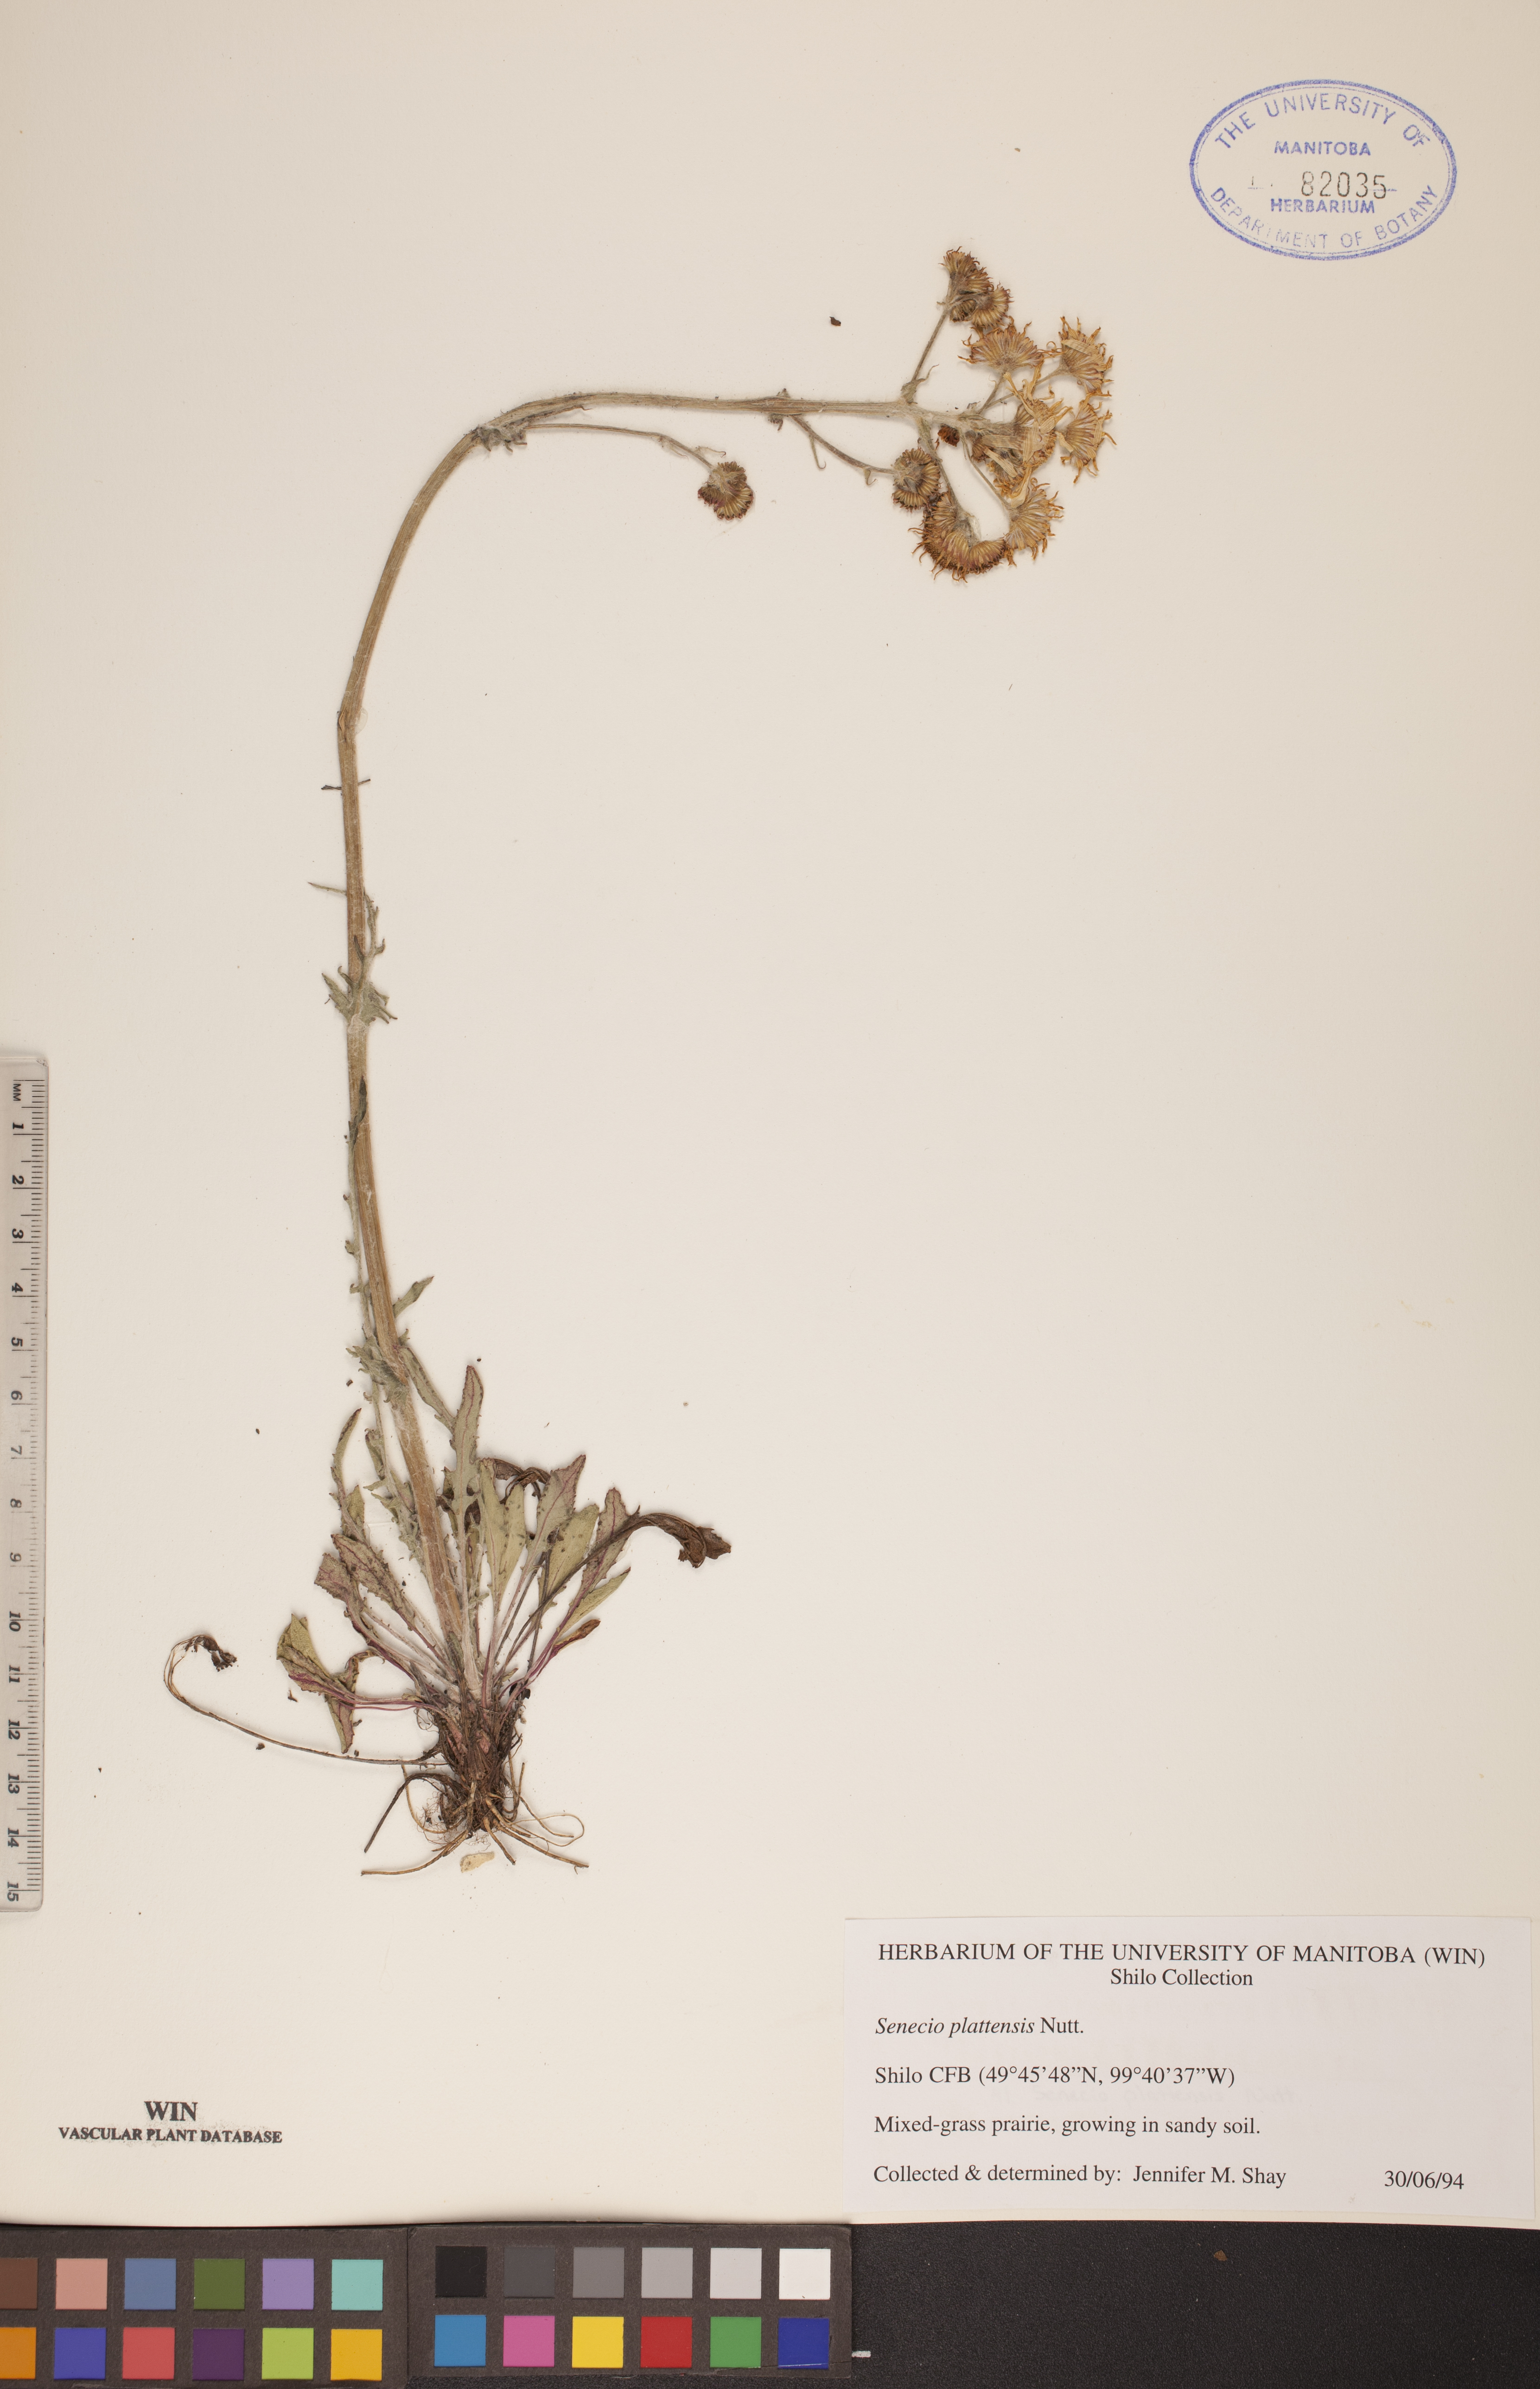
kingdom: Plantae
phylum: Tracheophyta
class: Magnoliopsida
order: Asterales
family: Asteraceae
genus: Packera
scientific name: Packera plattensis
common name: Prairie groundsel
